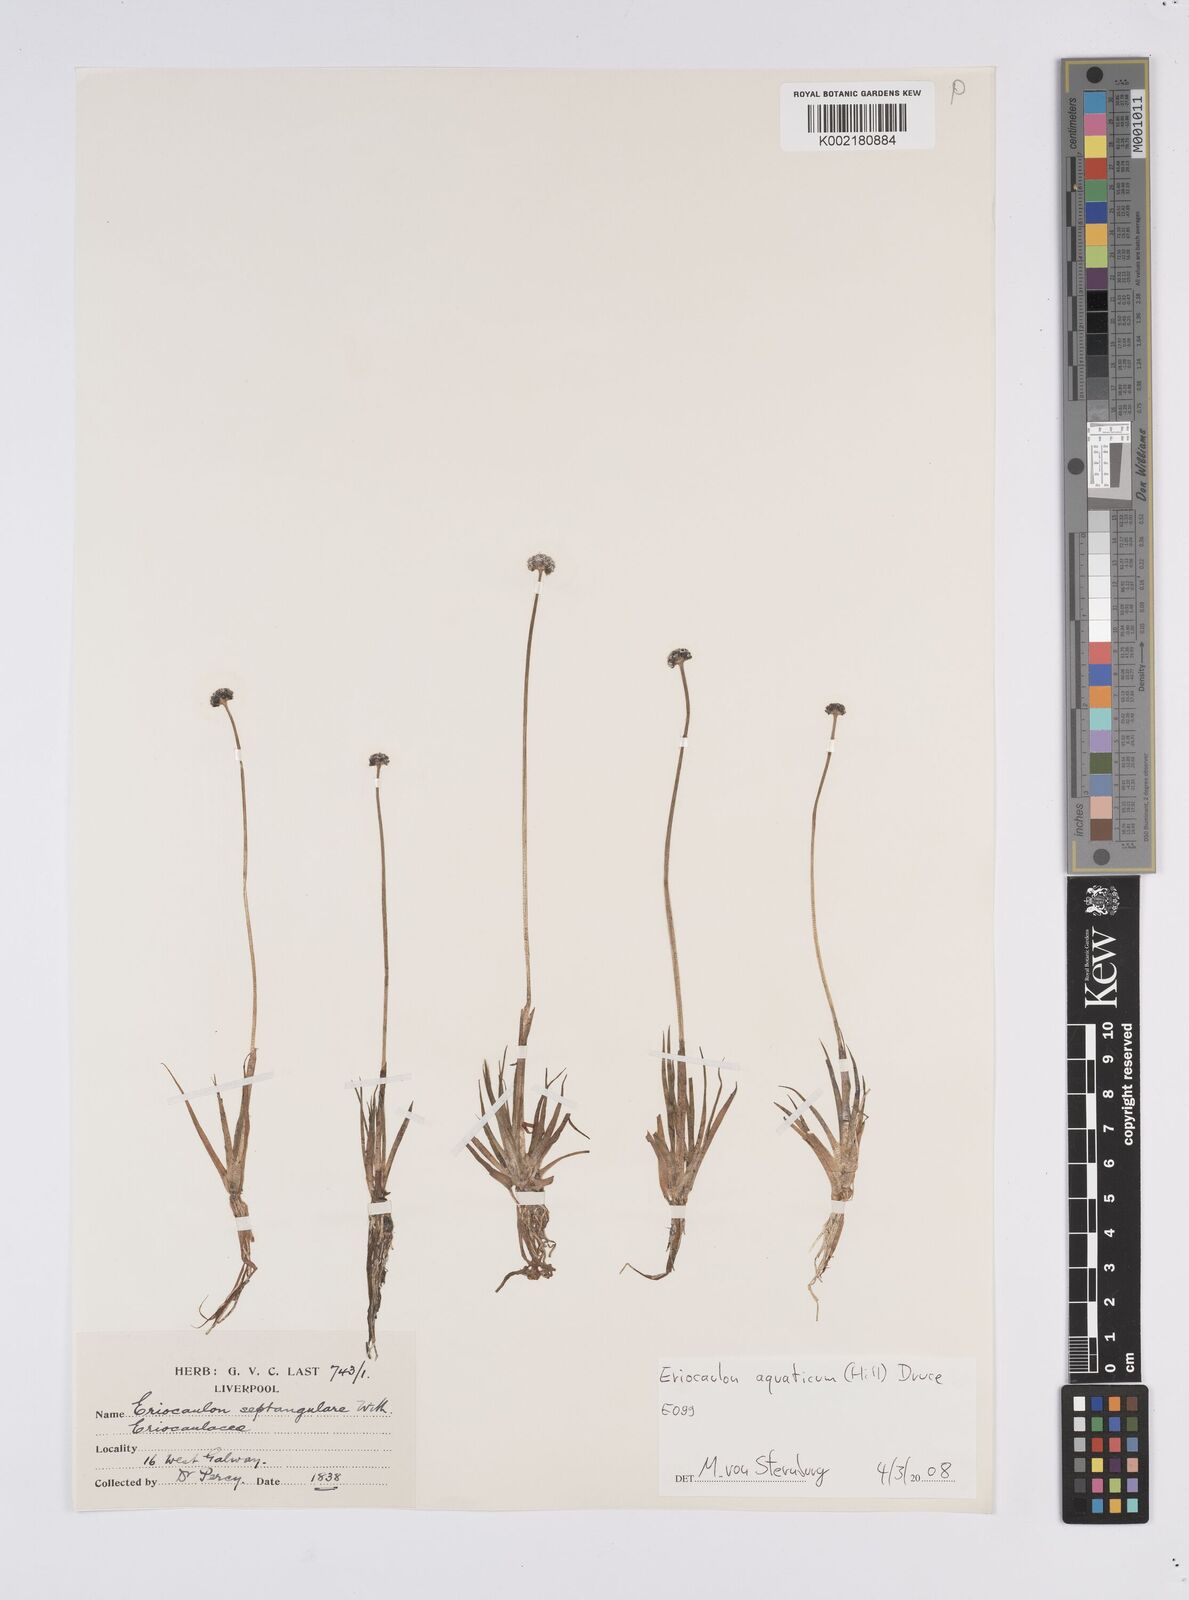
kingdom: Plantae
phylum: Tracheophyta
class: Liliopsida
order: Poales
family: Eriocaulaceae
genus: Eriocaulon
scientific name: Eriocaulon aquaticum
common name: Pipewort
